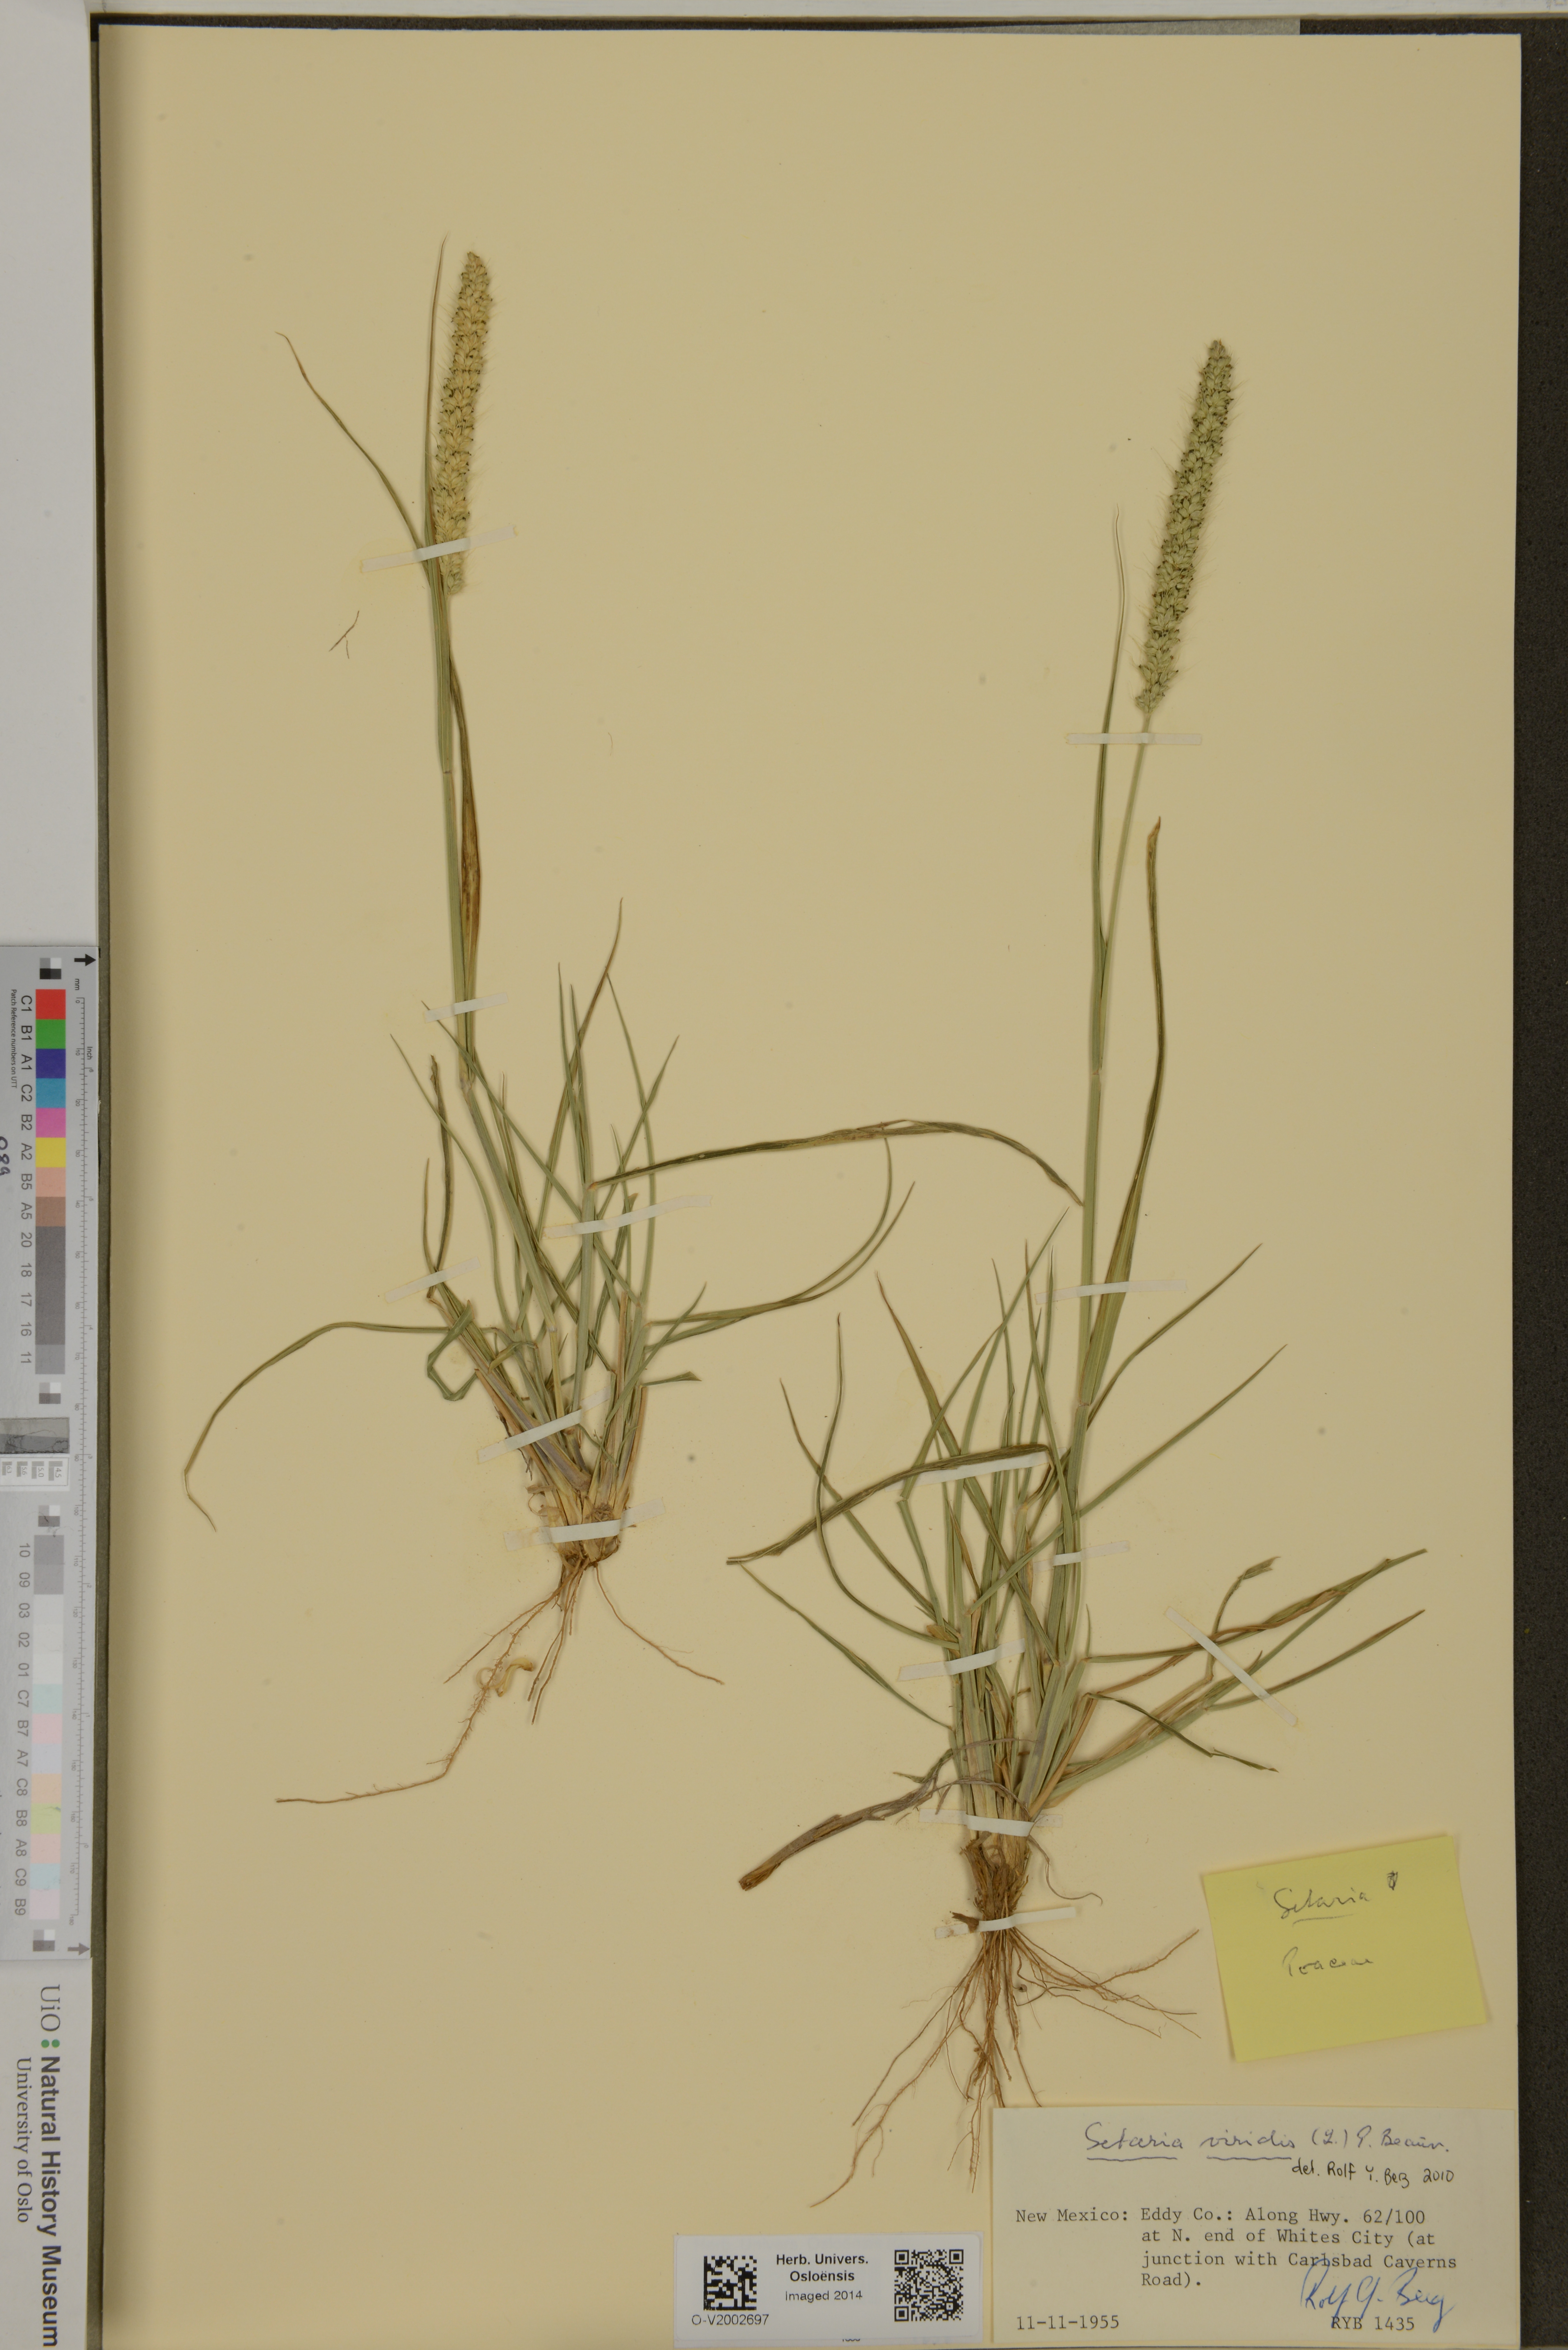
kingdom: Plantae
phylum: Tracheophyta
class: Liliopsida
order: Poales
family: Poaceae
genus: Setaria
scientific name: Setaria viridis
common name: Green bristlegrass
